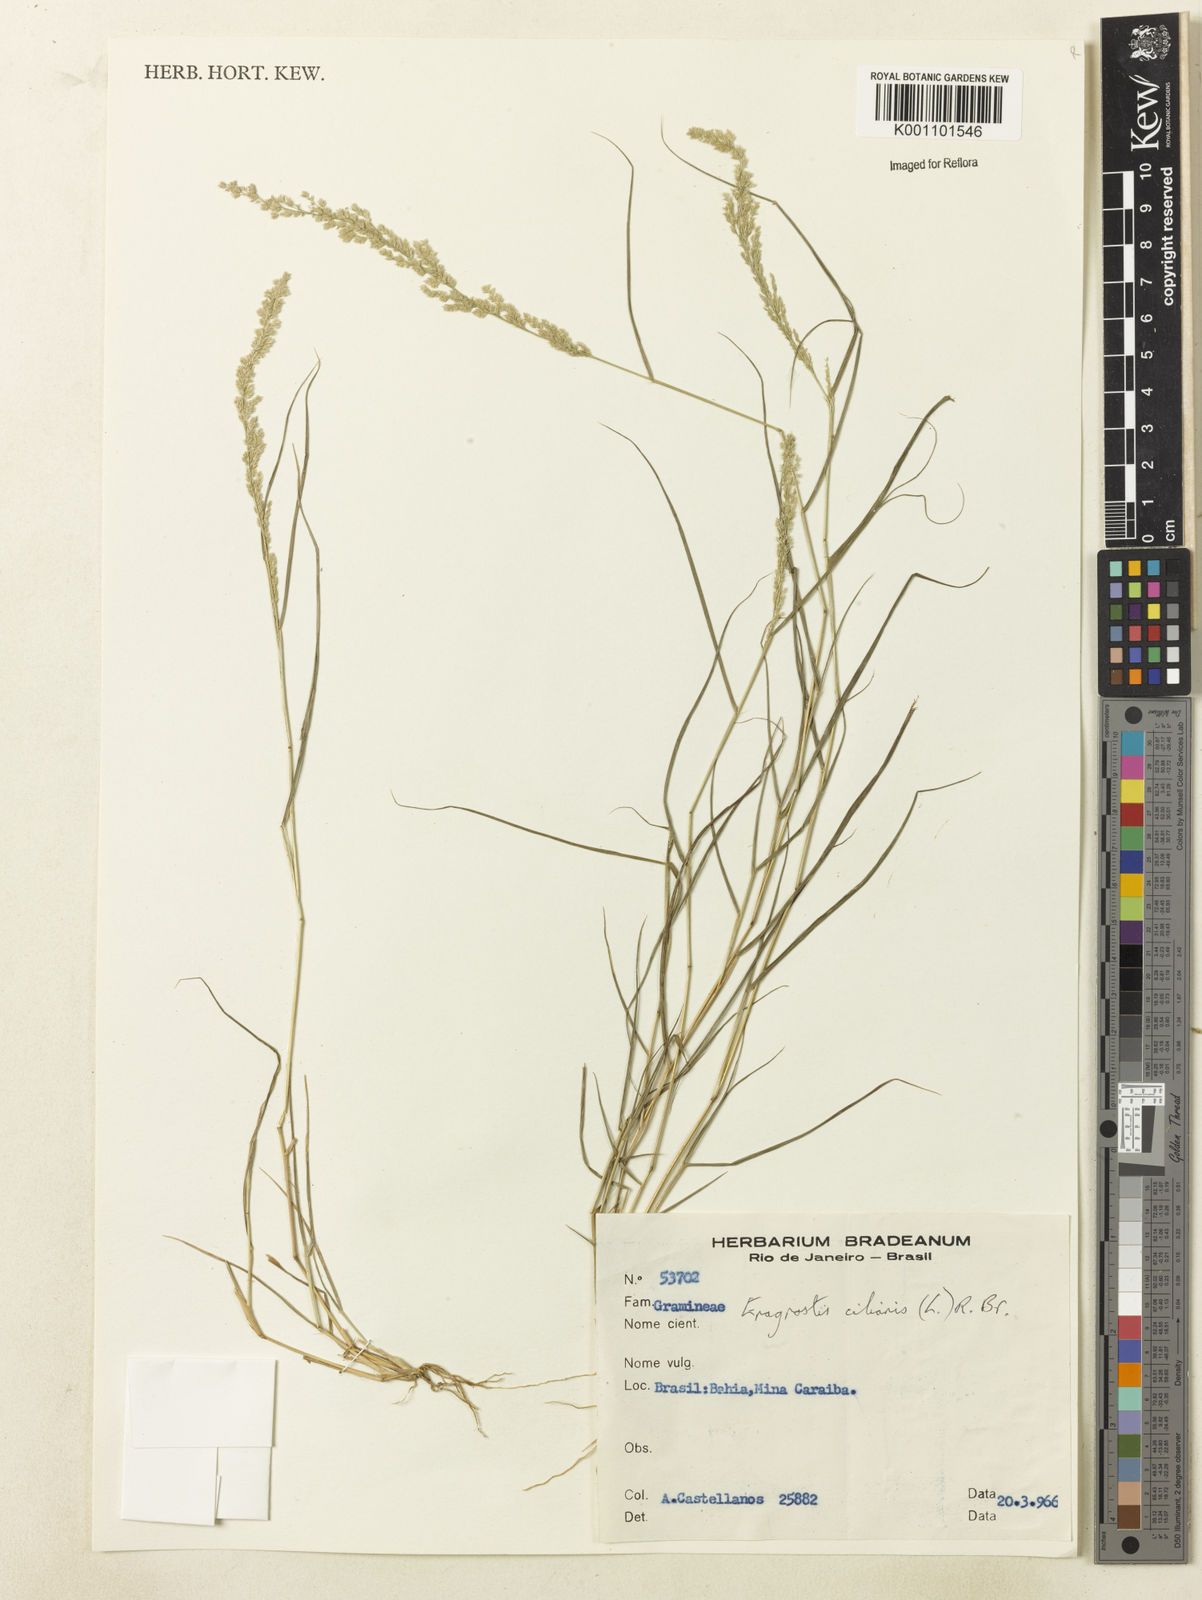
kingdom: Plantae
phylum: Tracheophyta
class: Liliopsida
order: Poales
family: Poaceae
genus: Eragrostis
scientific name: Eragrostis ciliaris
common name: Gophertail lovegrass
